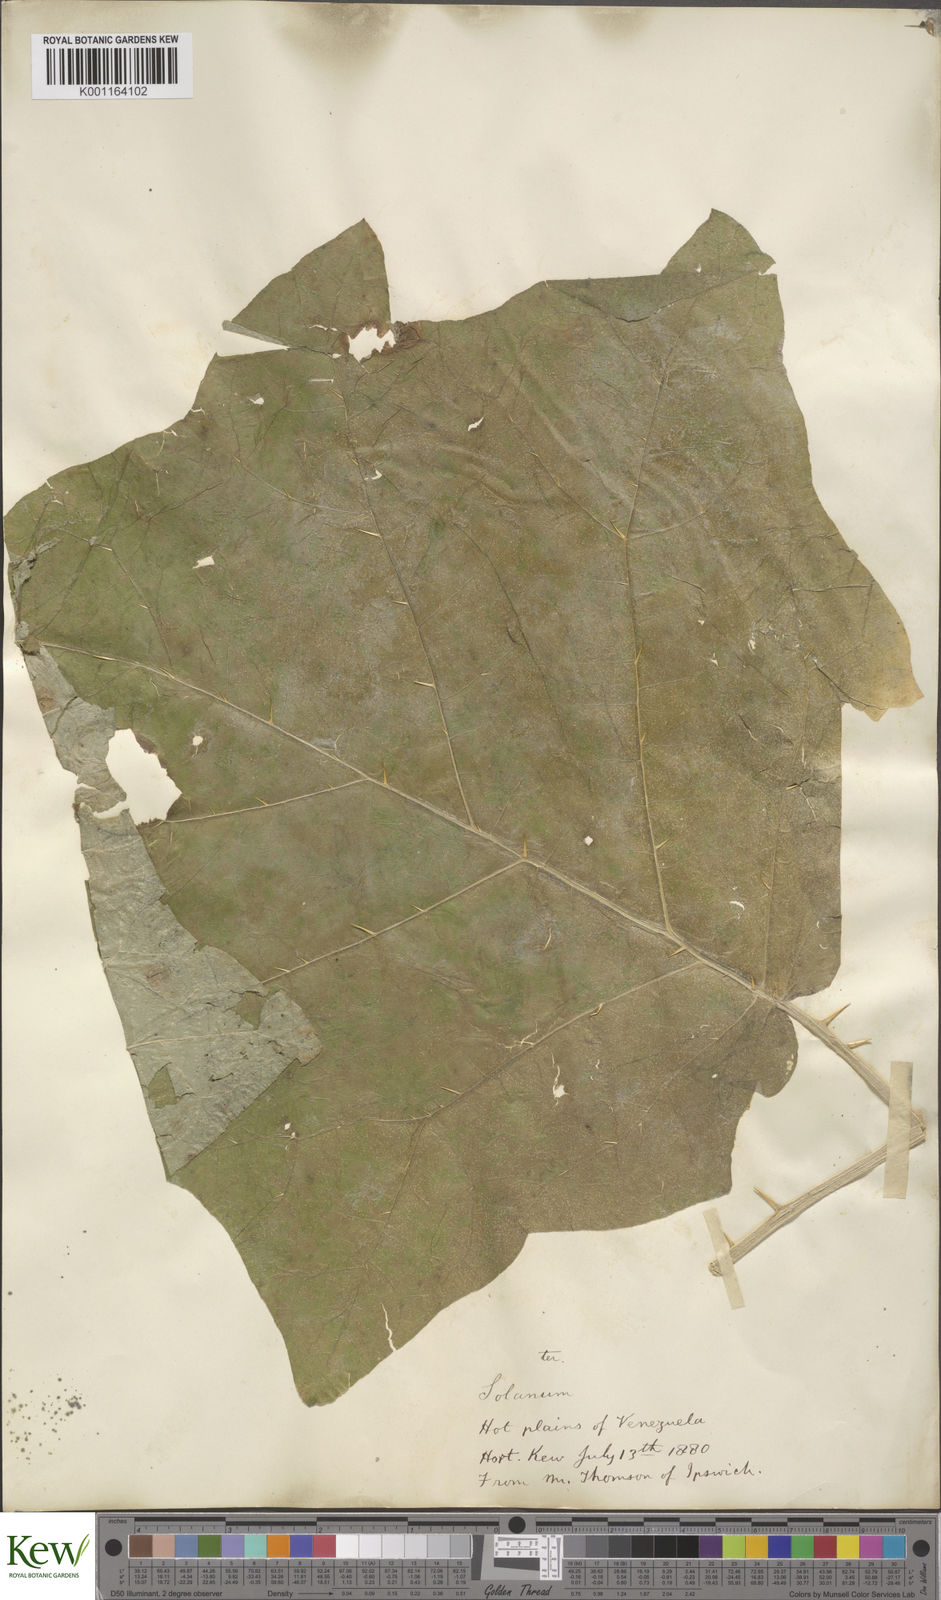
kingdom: Plantae
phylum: Tracheophyta
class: Magnoliopsida
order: Solanales
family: Solanaceae
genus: Solanum
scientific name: Solanum hirtum
